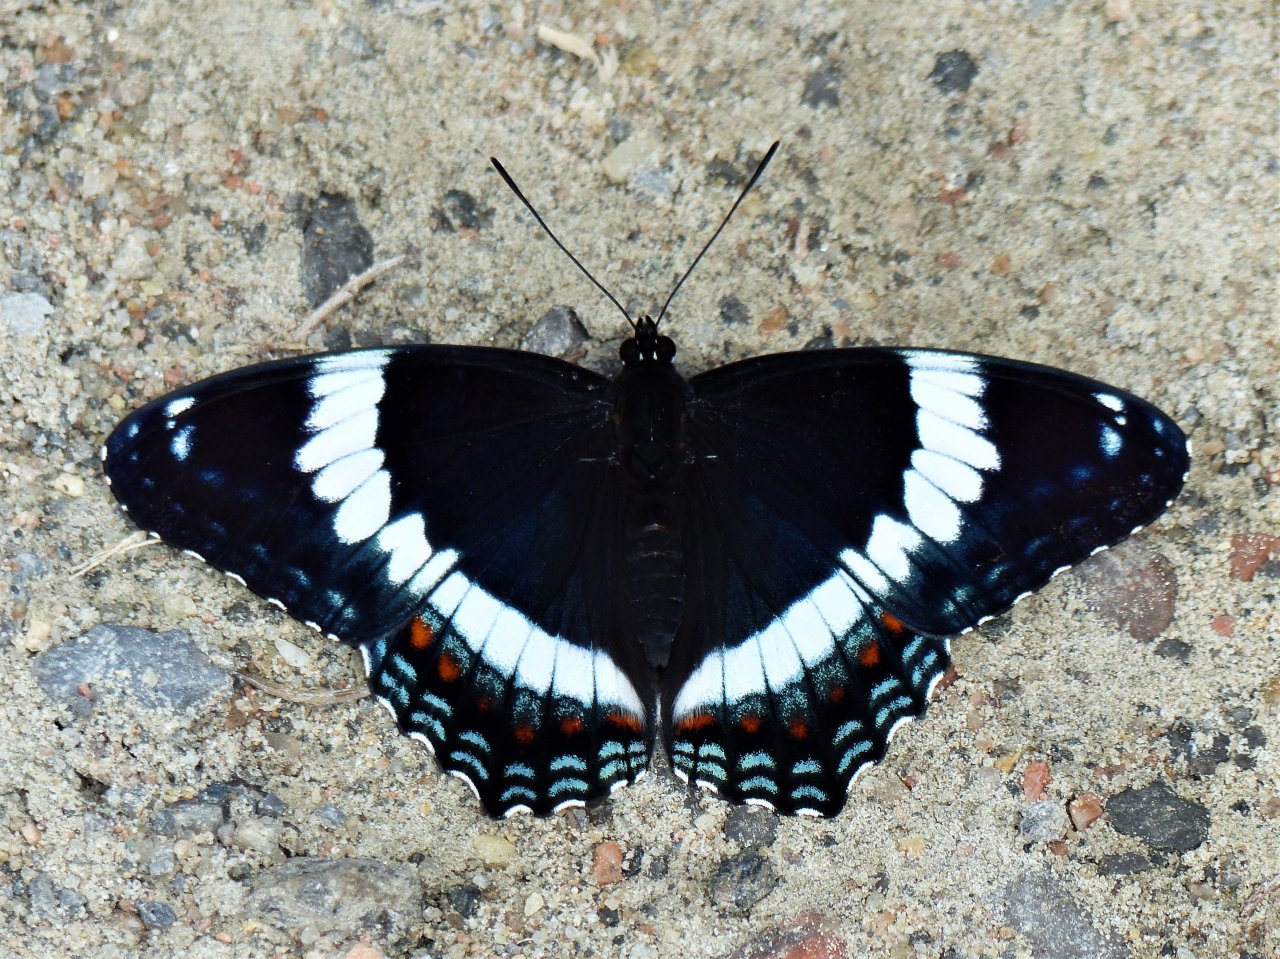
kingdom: Animalia
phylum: Arthropoda
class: Insecta
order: Lepidoptera
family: Nymphalidae
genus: Limenitis
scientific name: Limenitis arthemis
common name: Red-spotted Admiral
